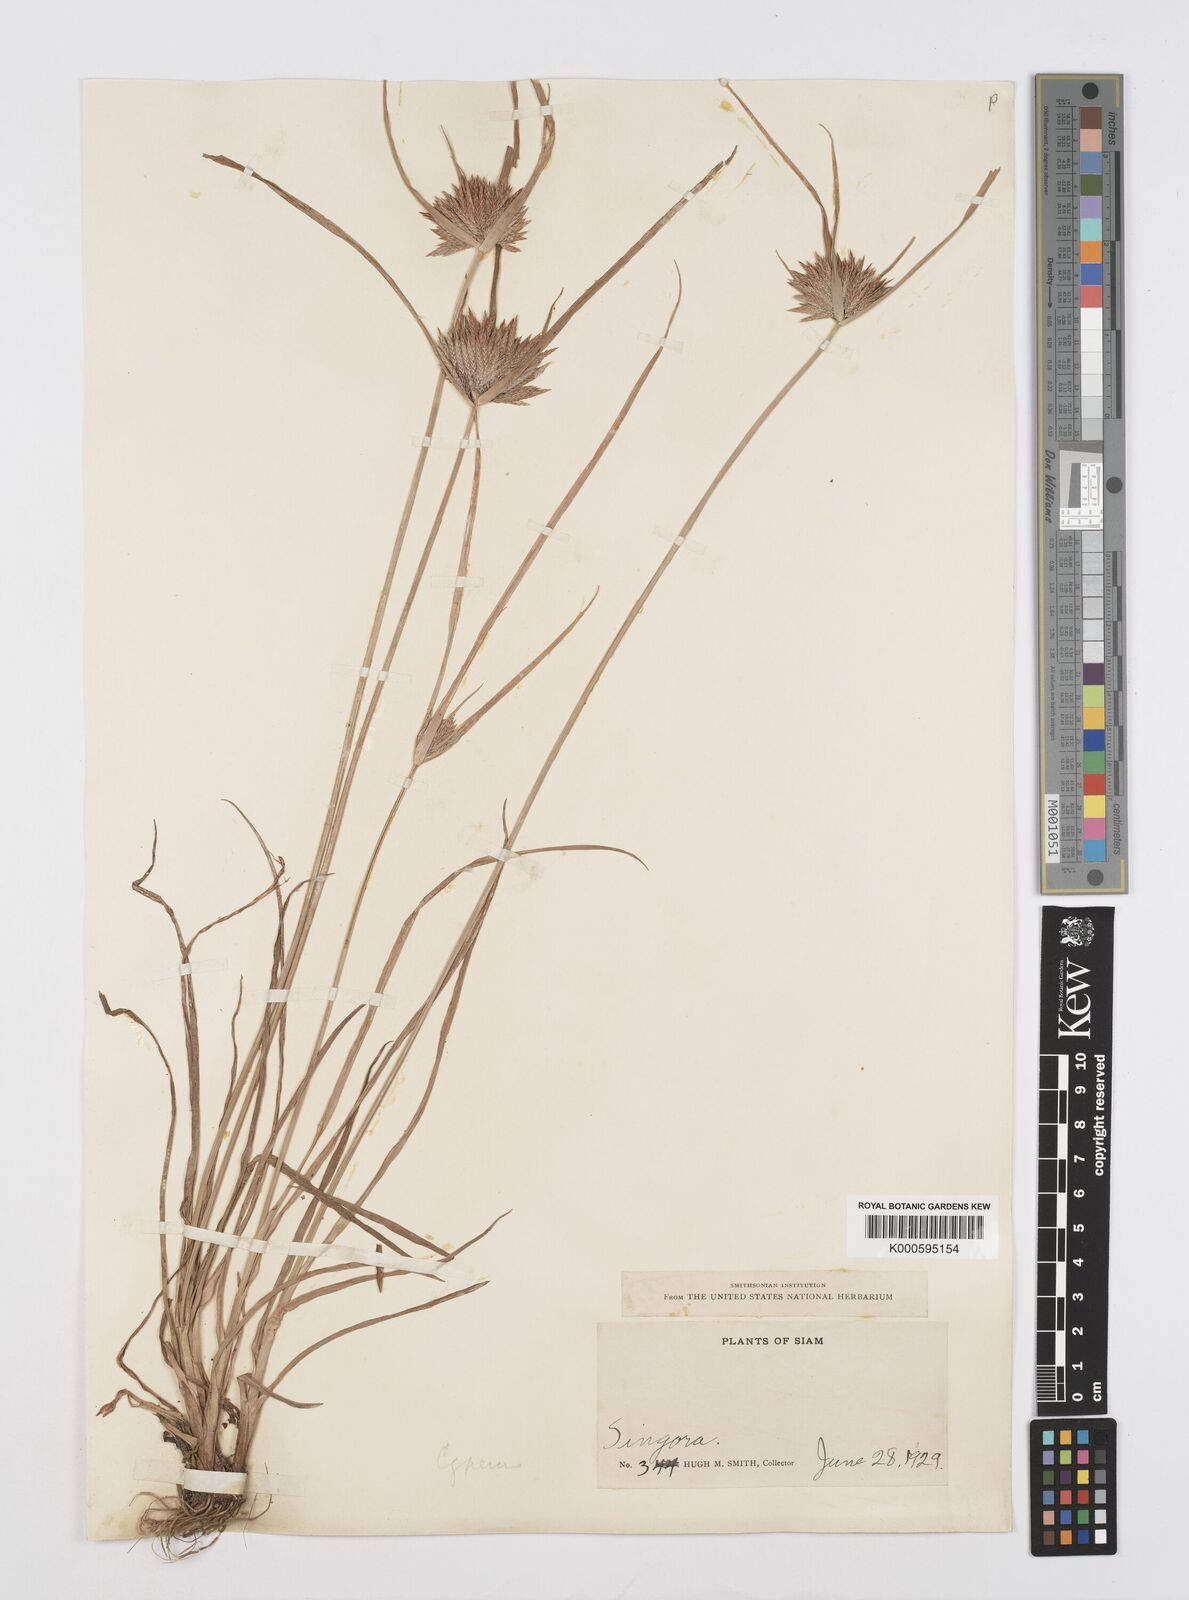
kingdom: Plantae
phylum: Tracheophyta
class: Liliopsida
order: Poales
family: Cyperaceae
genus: Cyperus
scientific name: Cyperus polystachyos
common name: Bunchy flat sedge
